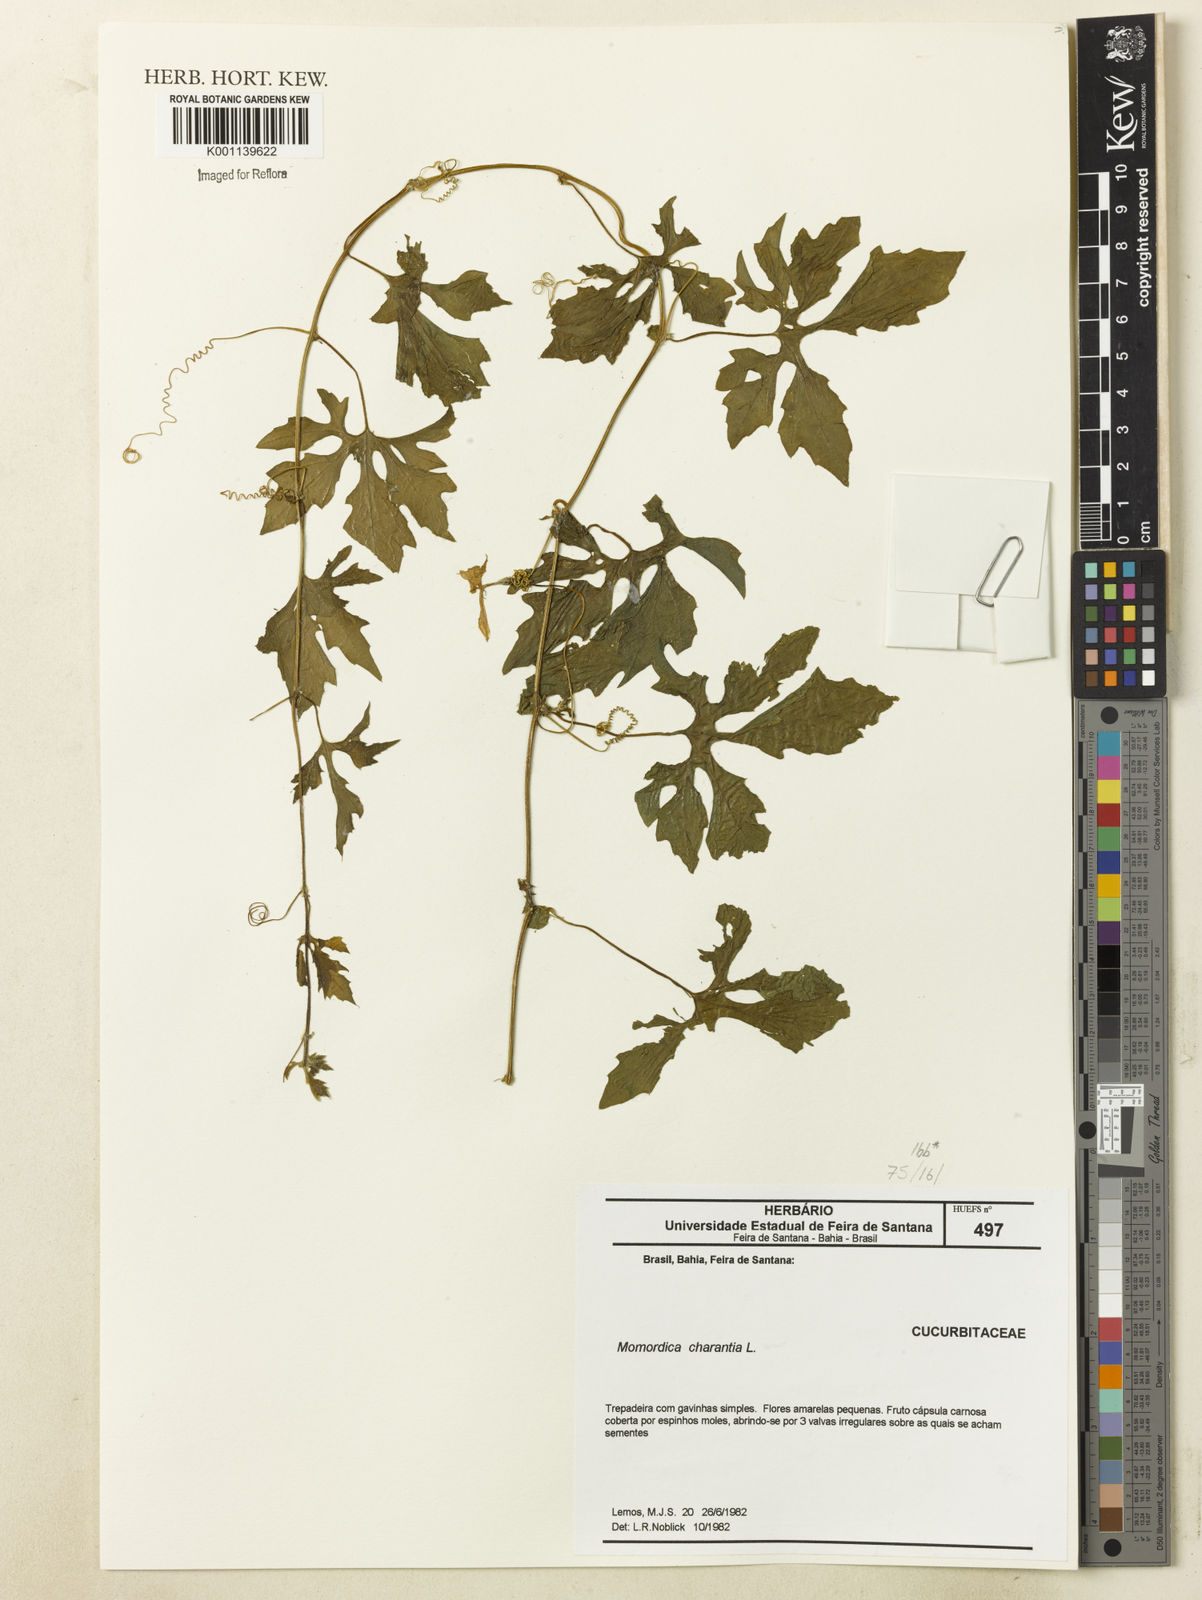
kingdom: Plantae
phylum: Tracheophyta
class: Magnoliopsida
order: Cucurbitales
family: Cucurbitaceae
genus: Momordica
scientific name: Momordica charantia
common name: Balsampear
